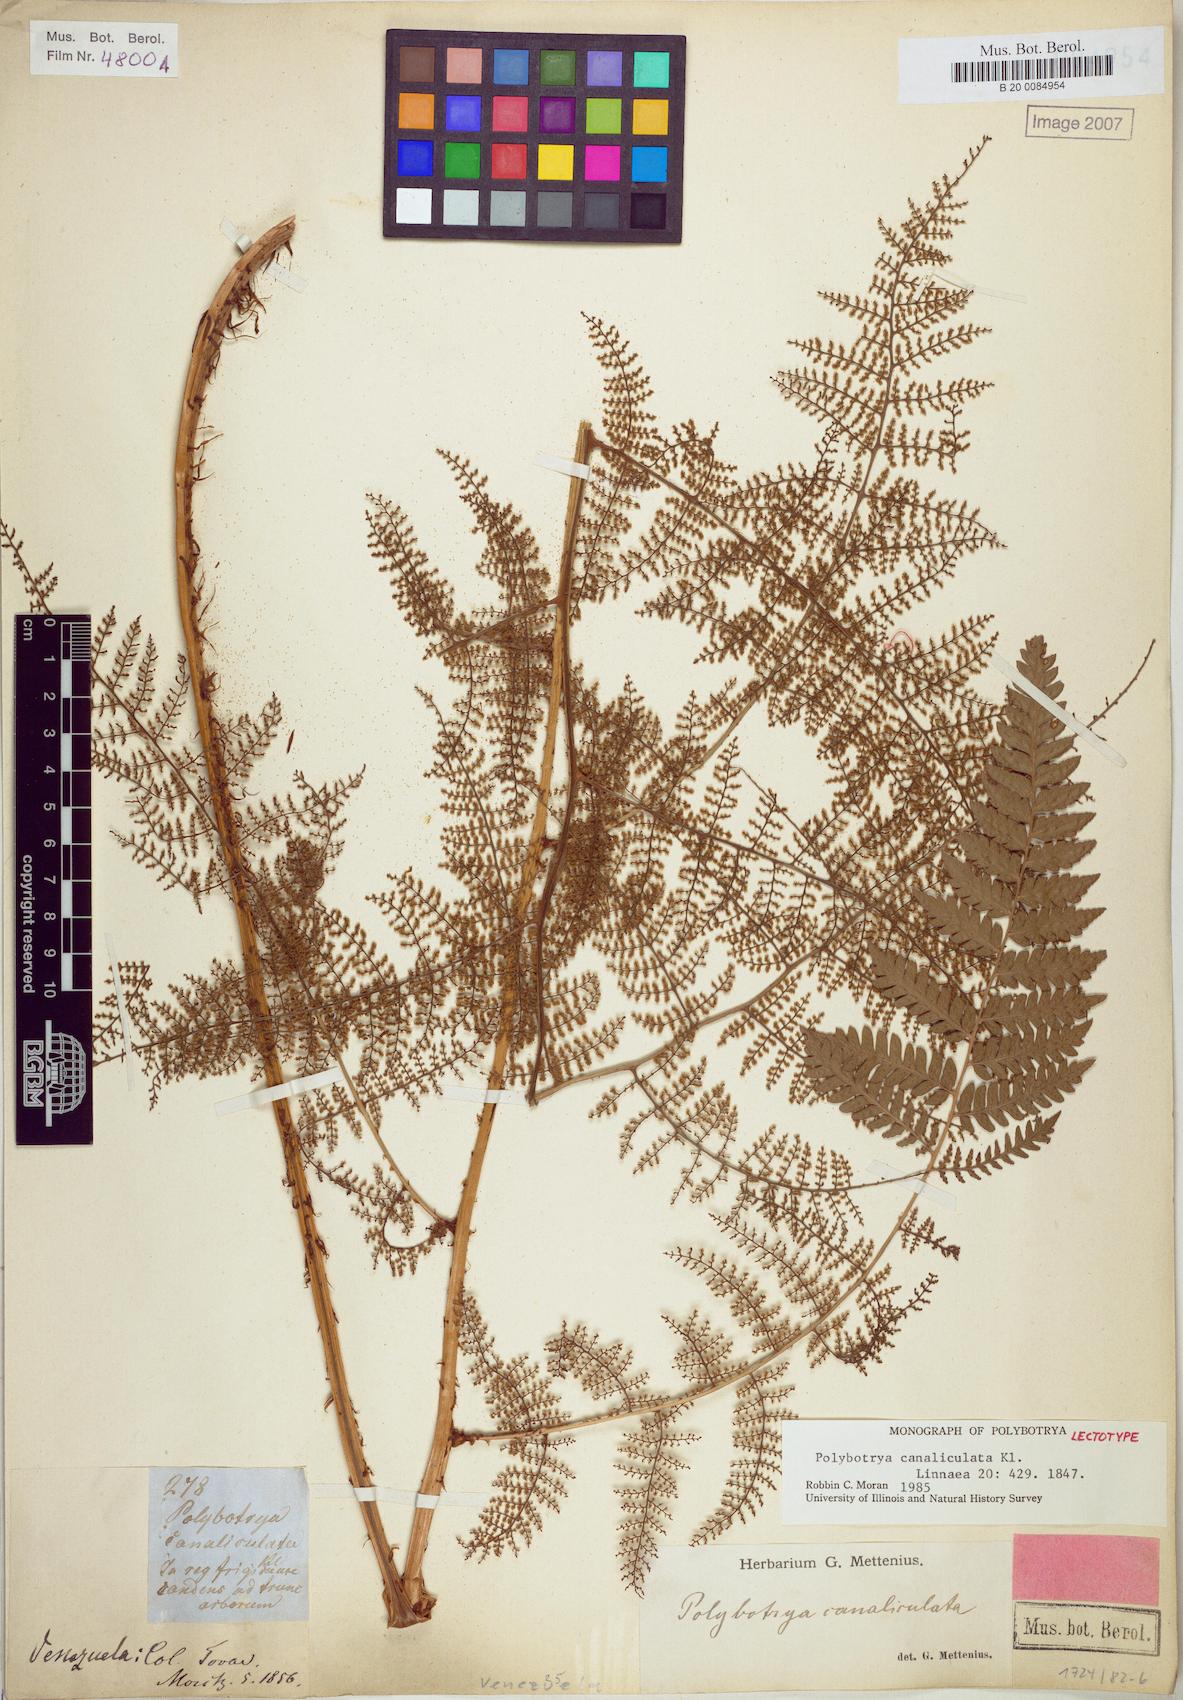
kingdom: Plantae
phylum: Tracheophyta
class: Polypodiopsida
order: Polypodiales
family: Dryopteridaceae
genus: Polybotrya
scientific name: Polybotrya canaliculata
